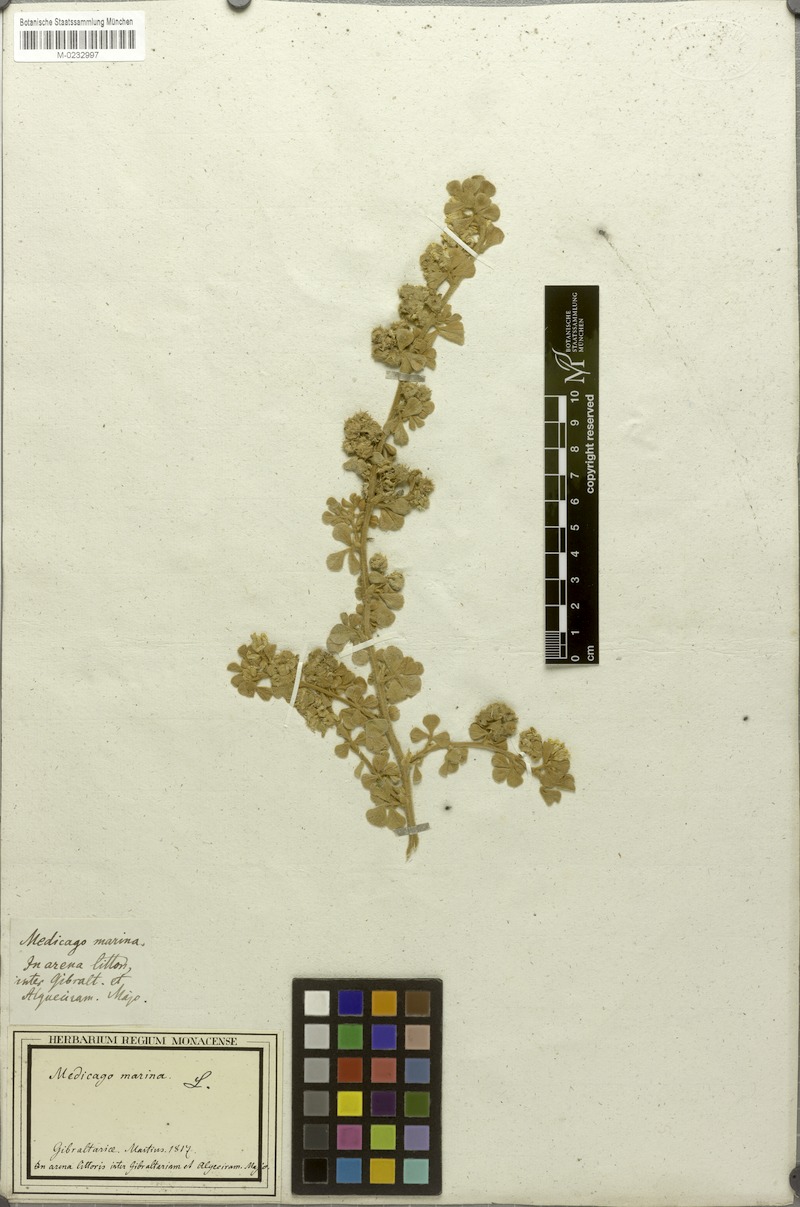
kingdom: Plantae
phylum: Tracheophyta
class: Magnoliopsida
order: Fabales
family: Fabaceae
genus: Medicago
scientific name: Medicago marina
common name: Sea medick
